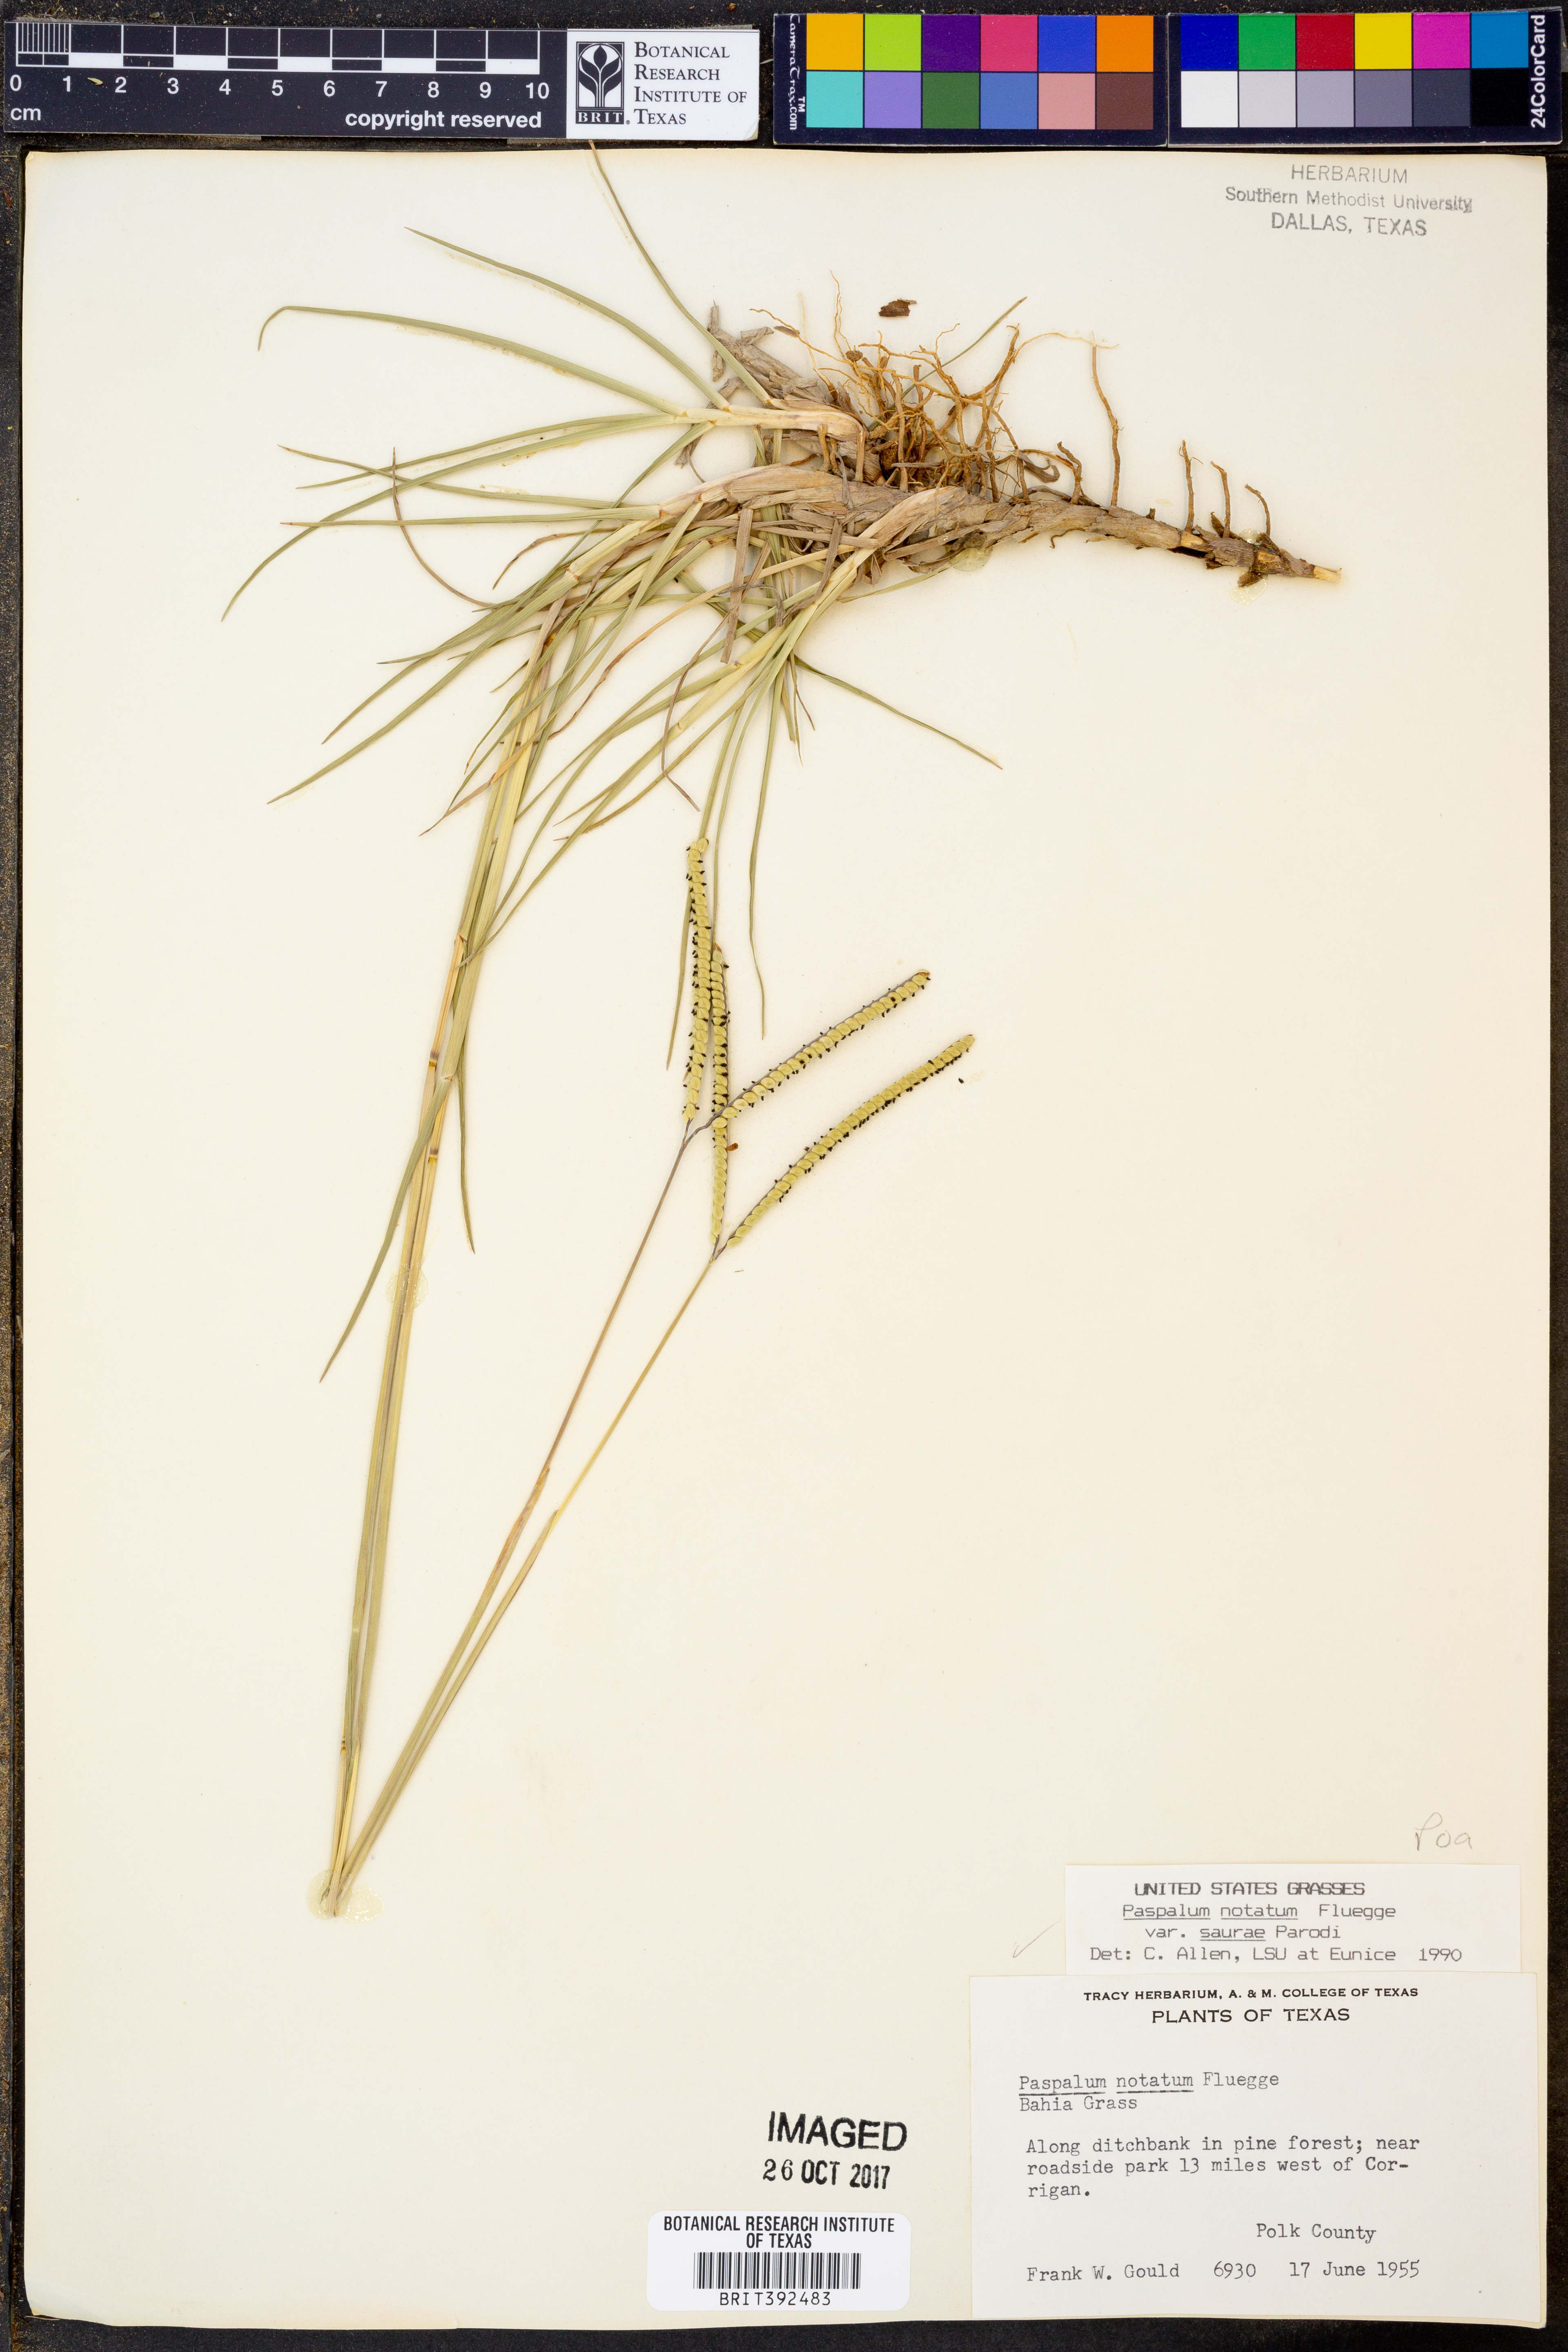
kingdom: Plantae
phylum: Tracheophyta
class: Liliopsida
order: Poales
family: Poaceae
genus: Paspalum
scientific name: Paspalum saurae
